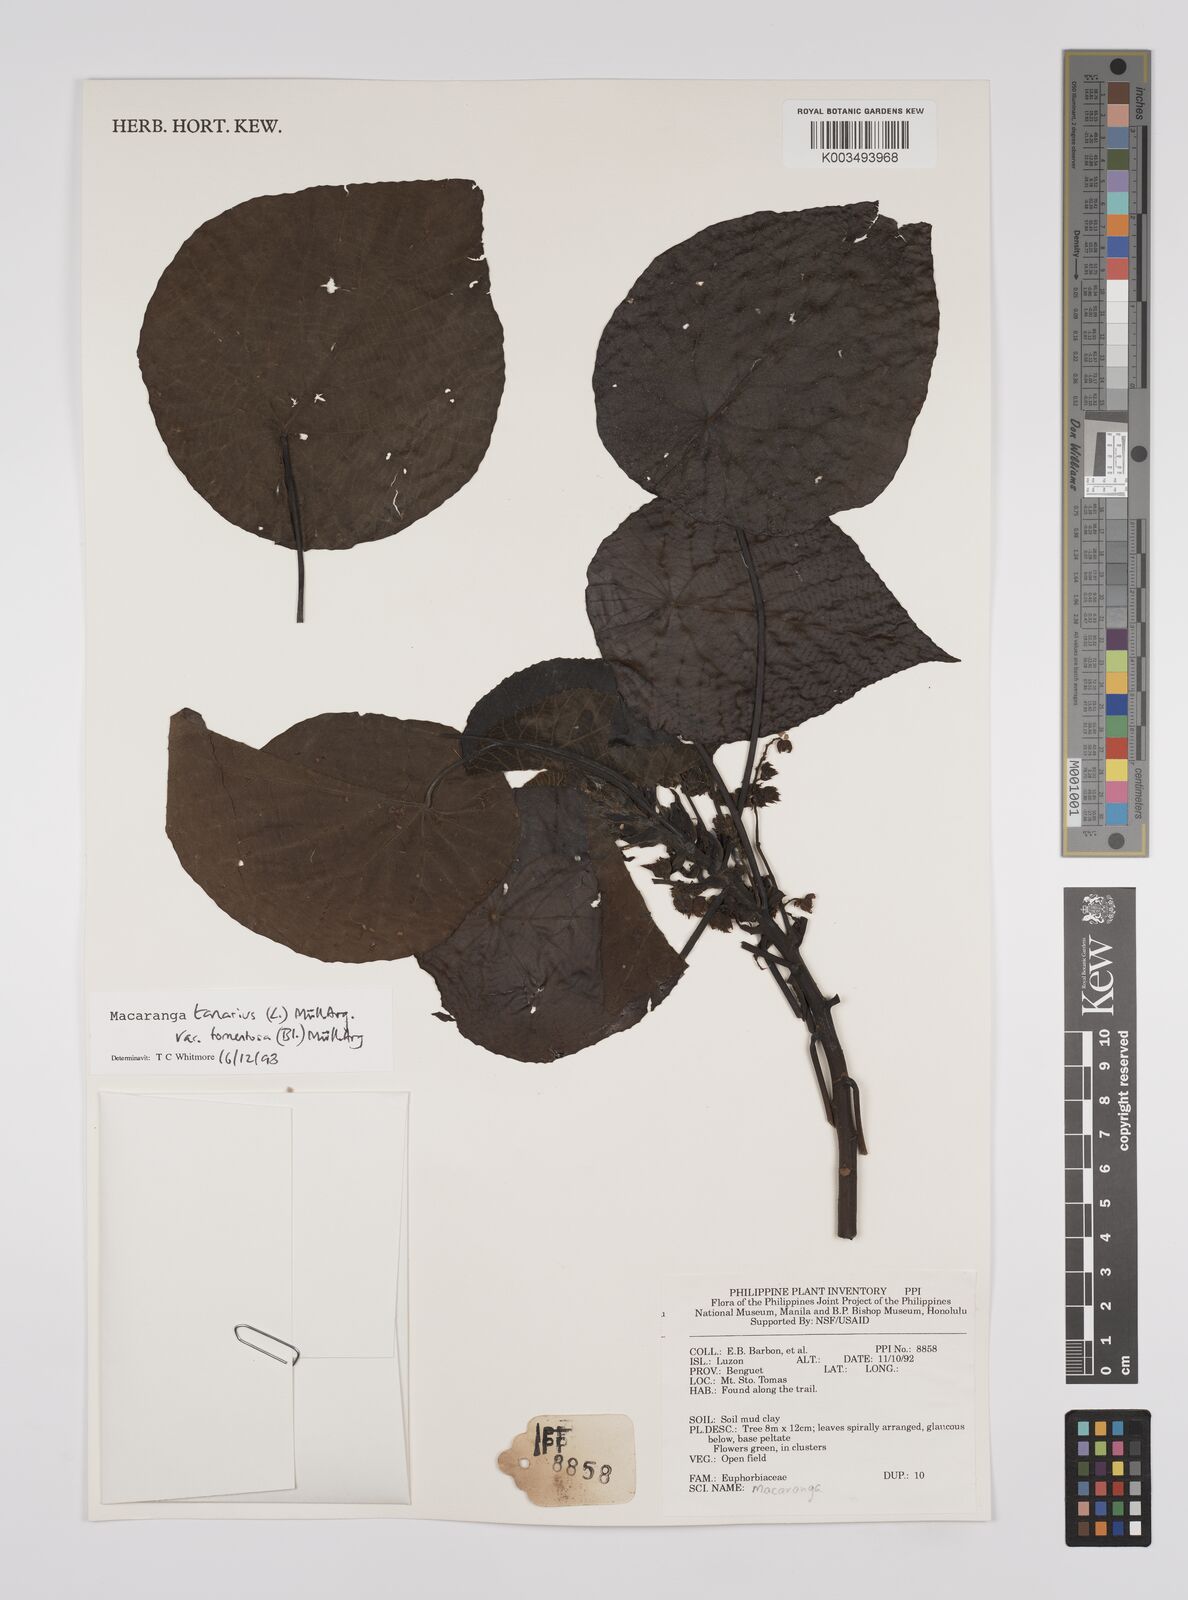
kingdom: Plantae
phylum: Tracheophyta
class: Magnoliopsida
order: Malpighiales
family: Euphorbiaceae
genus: Macaranga
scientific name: Macaranga tanarius
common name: Parasol leaf tree
